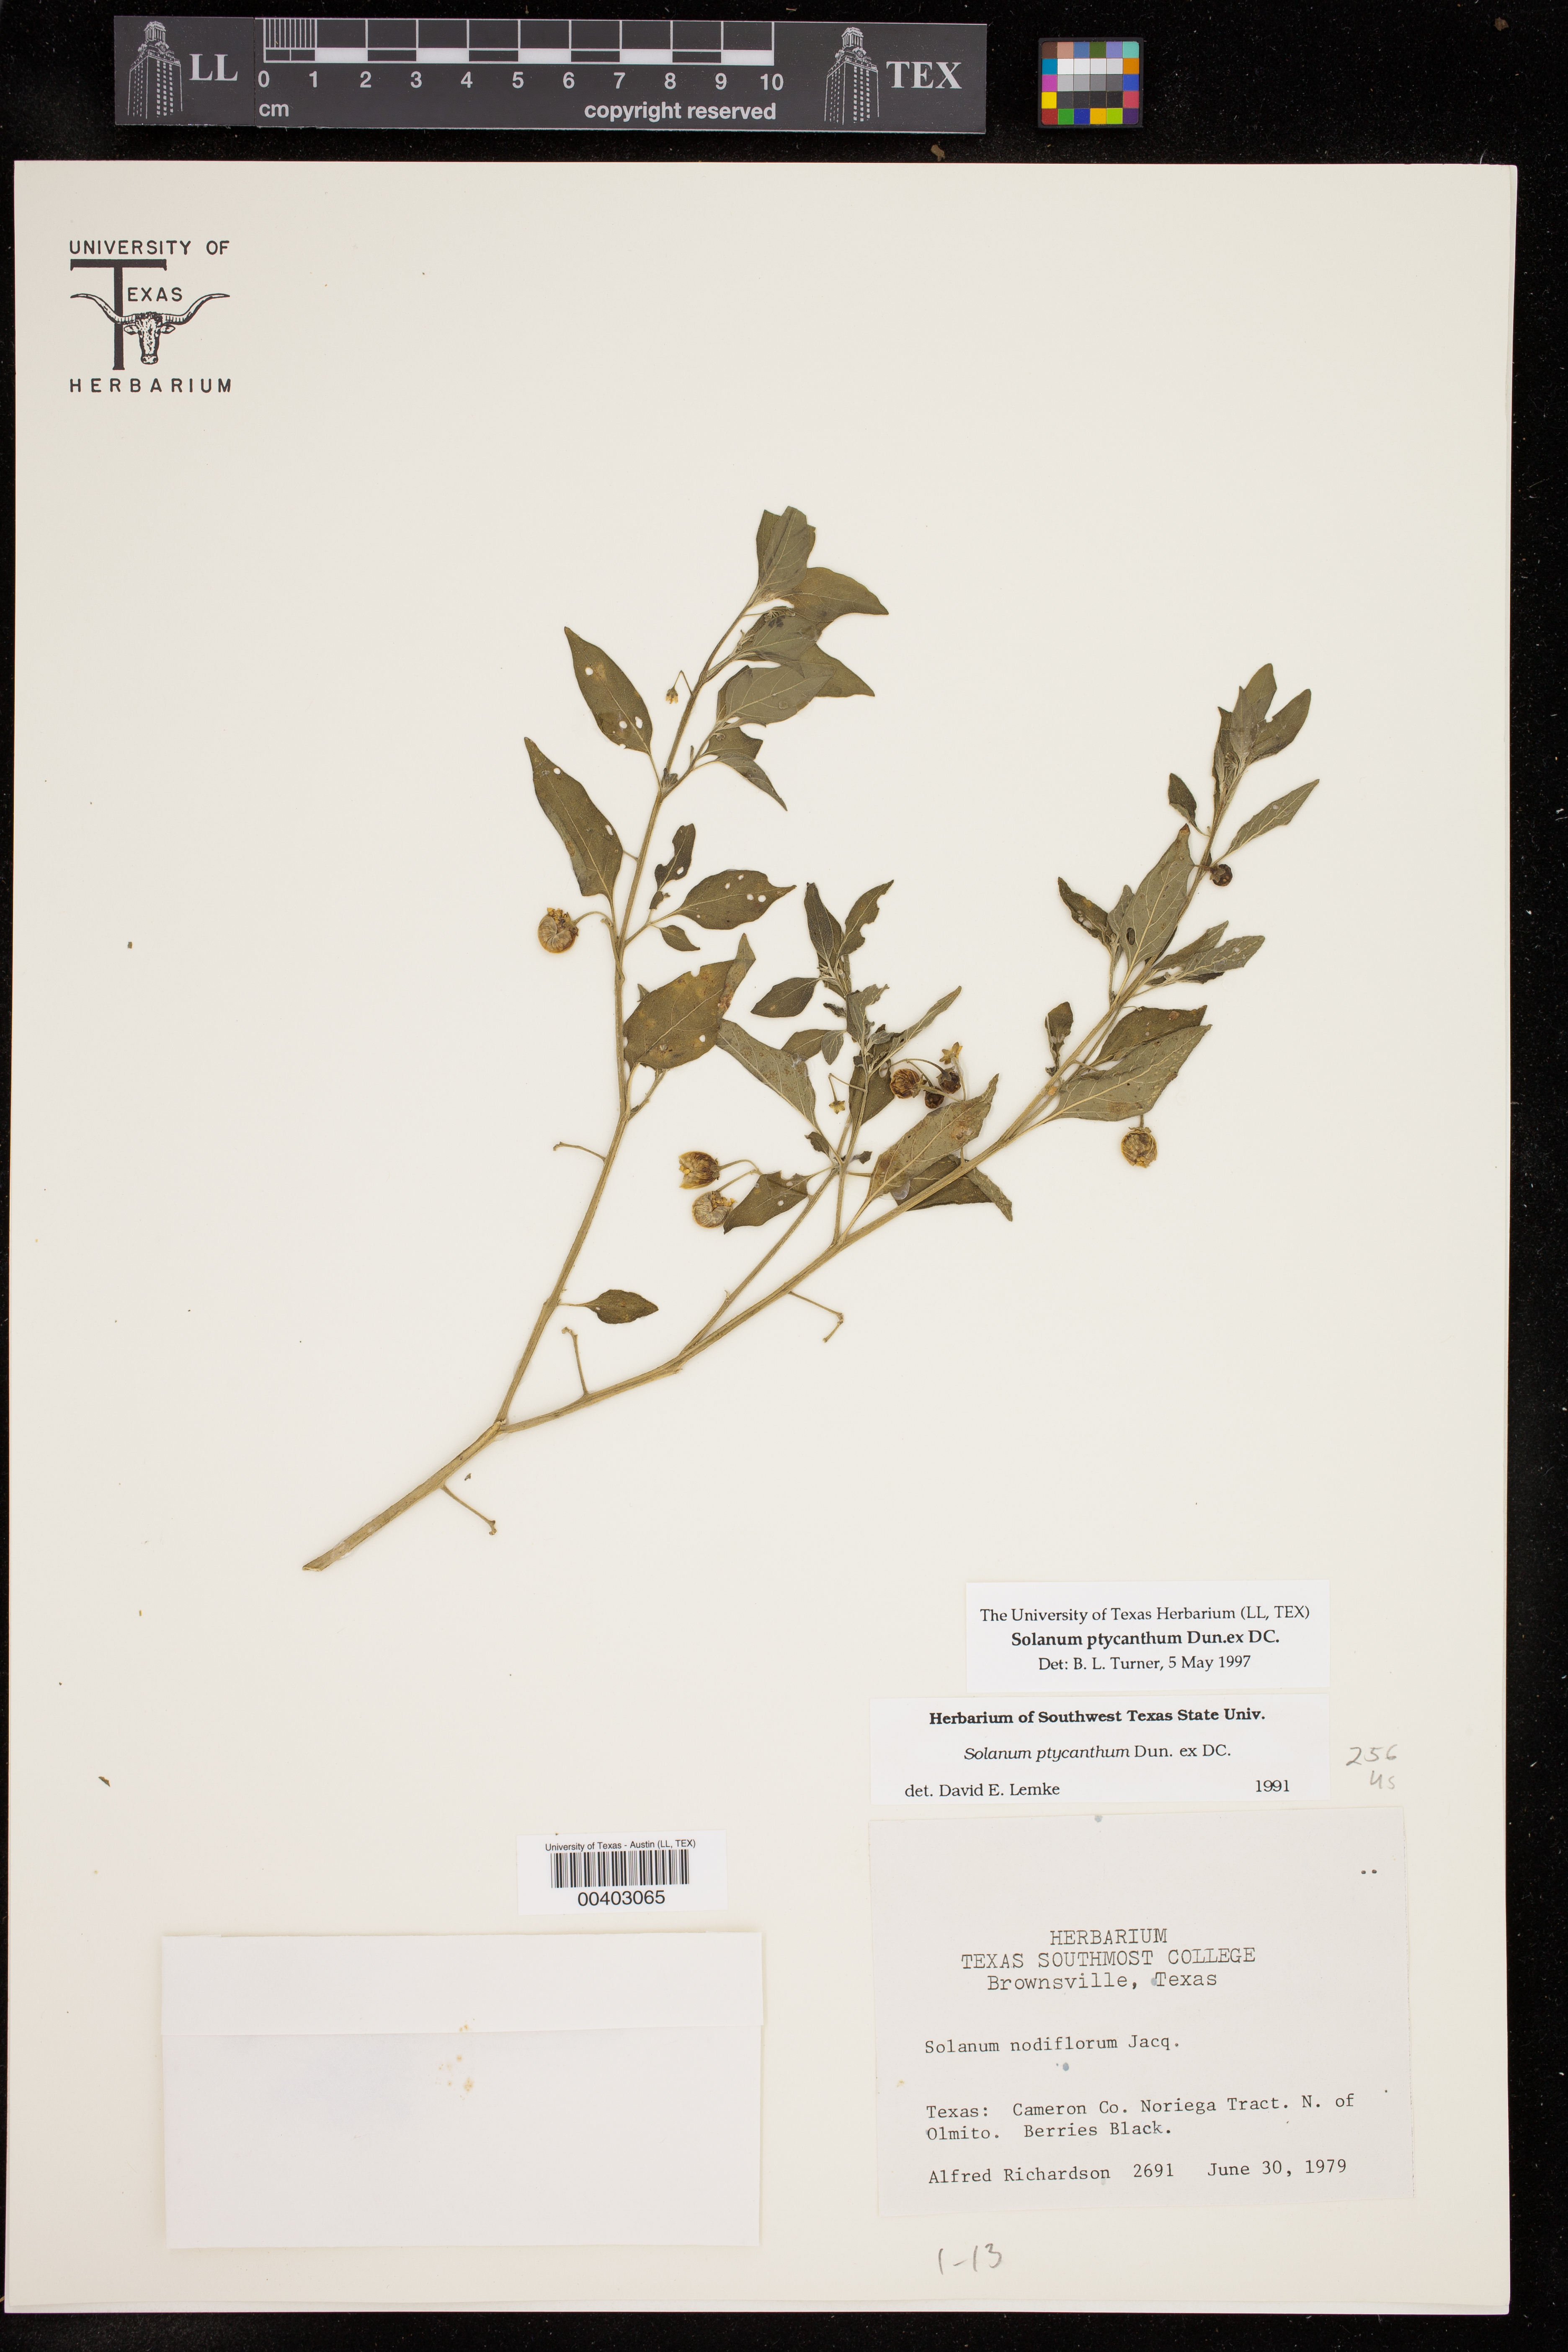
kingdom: Plantae
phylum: Tracheophyta
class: Magnoliopsida
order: Solanales
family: Solanaceae
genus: Solanum
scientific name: Solanum americanum
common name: American black nightshade
